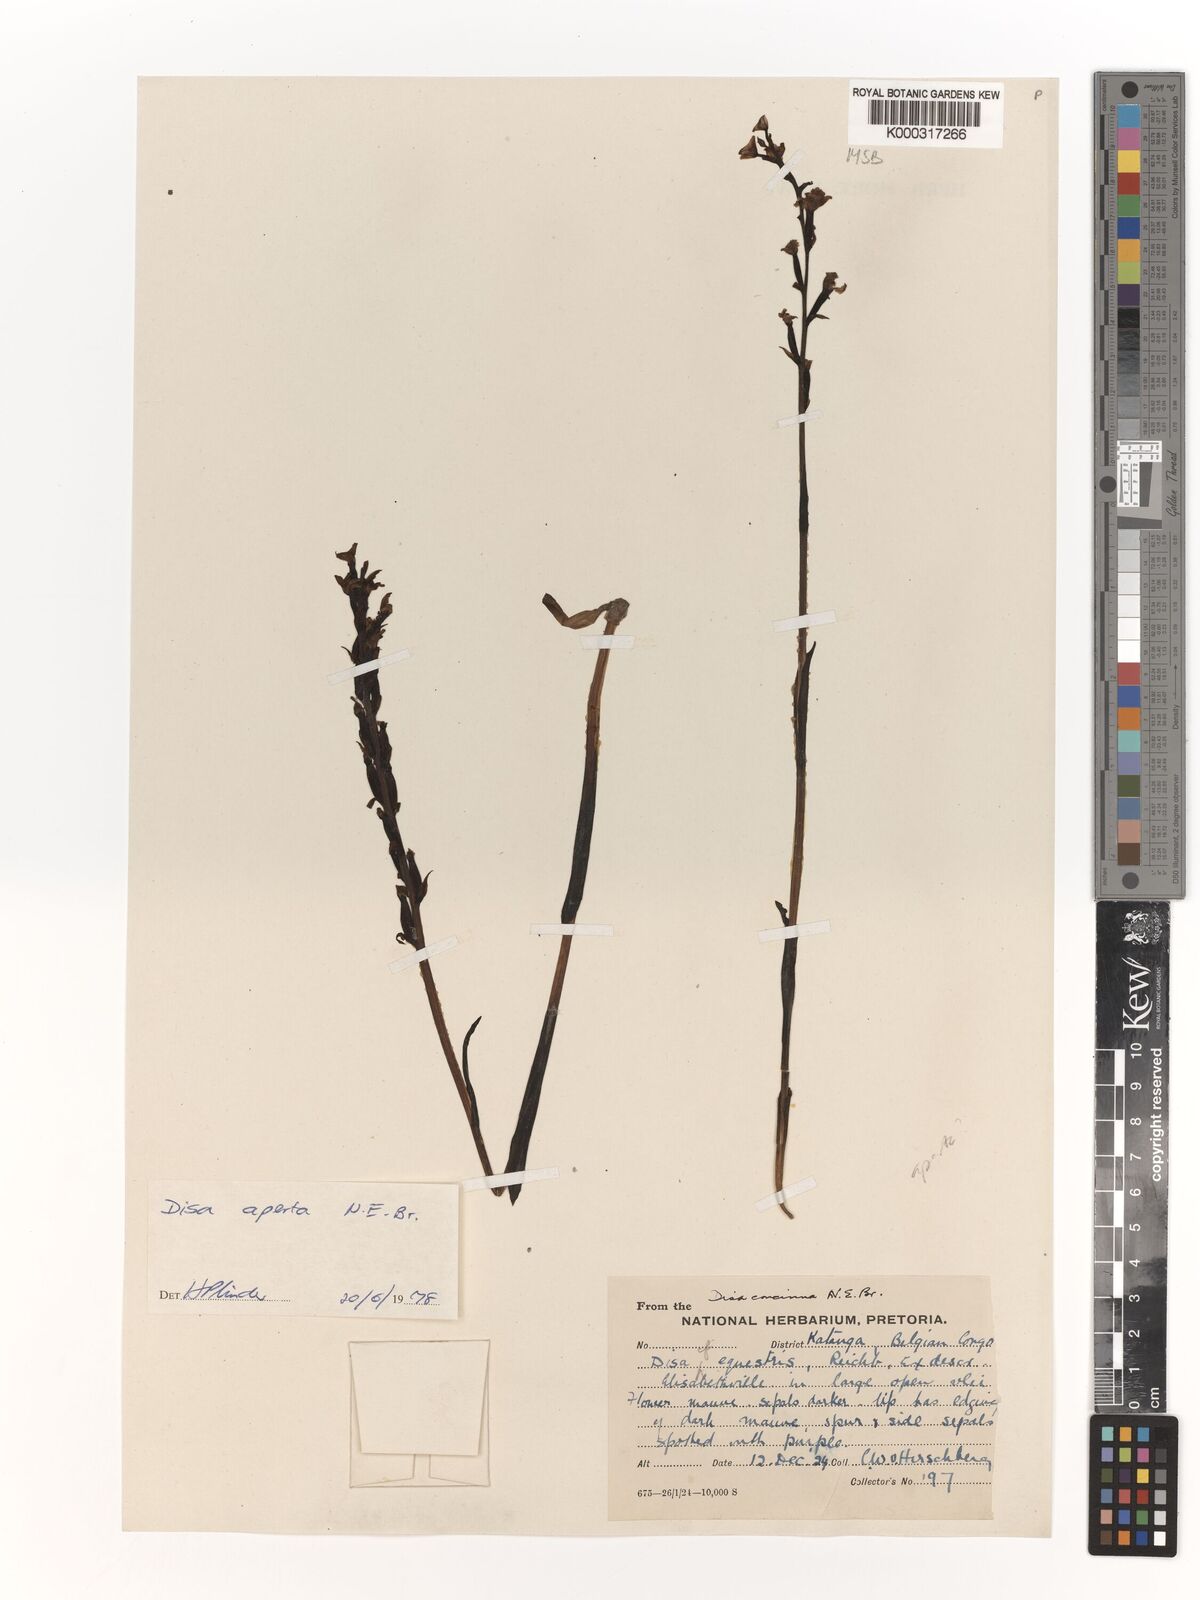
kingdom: Plantae
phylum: Tracheophyta
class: Liliopsida
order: Asparagales
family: Orchidaceae
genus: Disa
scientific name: Disa aperta
